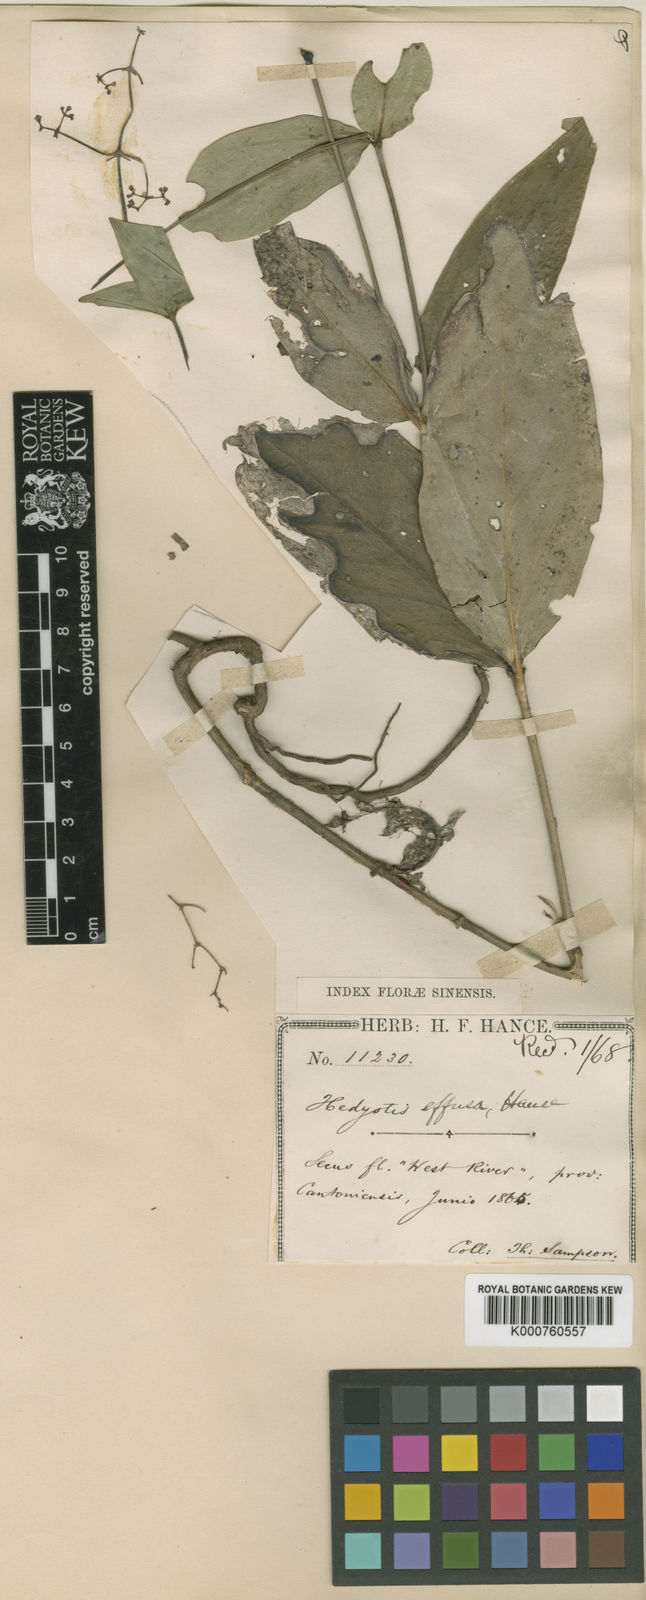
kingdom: Plantae
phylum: Tracheophyta
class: Magnoliopsida
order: Gentianales
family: Rubiaceae
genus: Cordylostigma
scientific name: Cordylostigma longifolium
